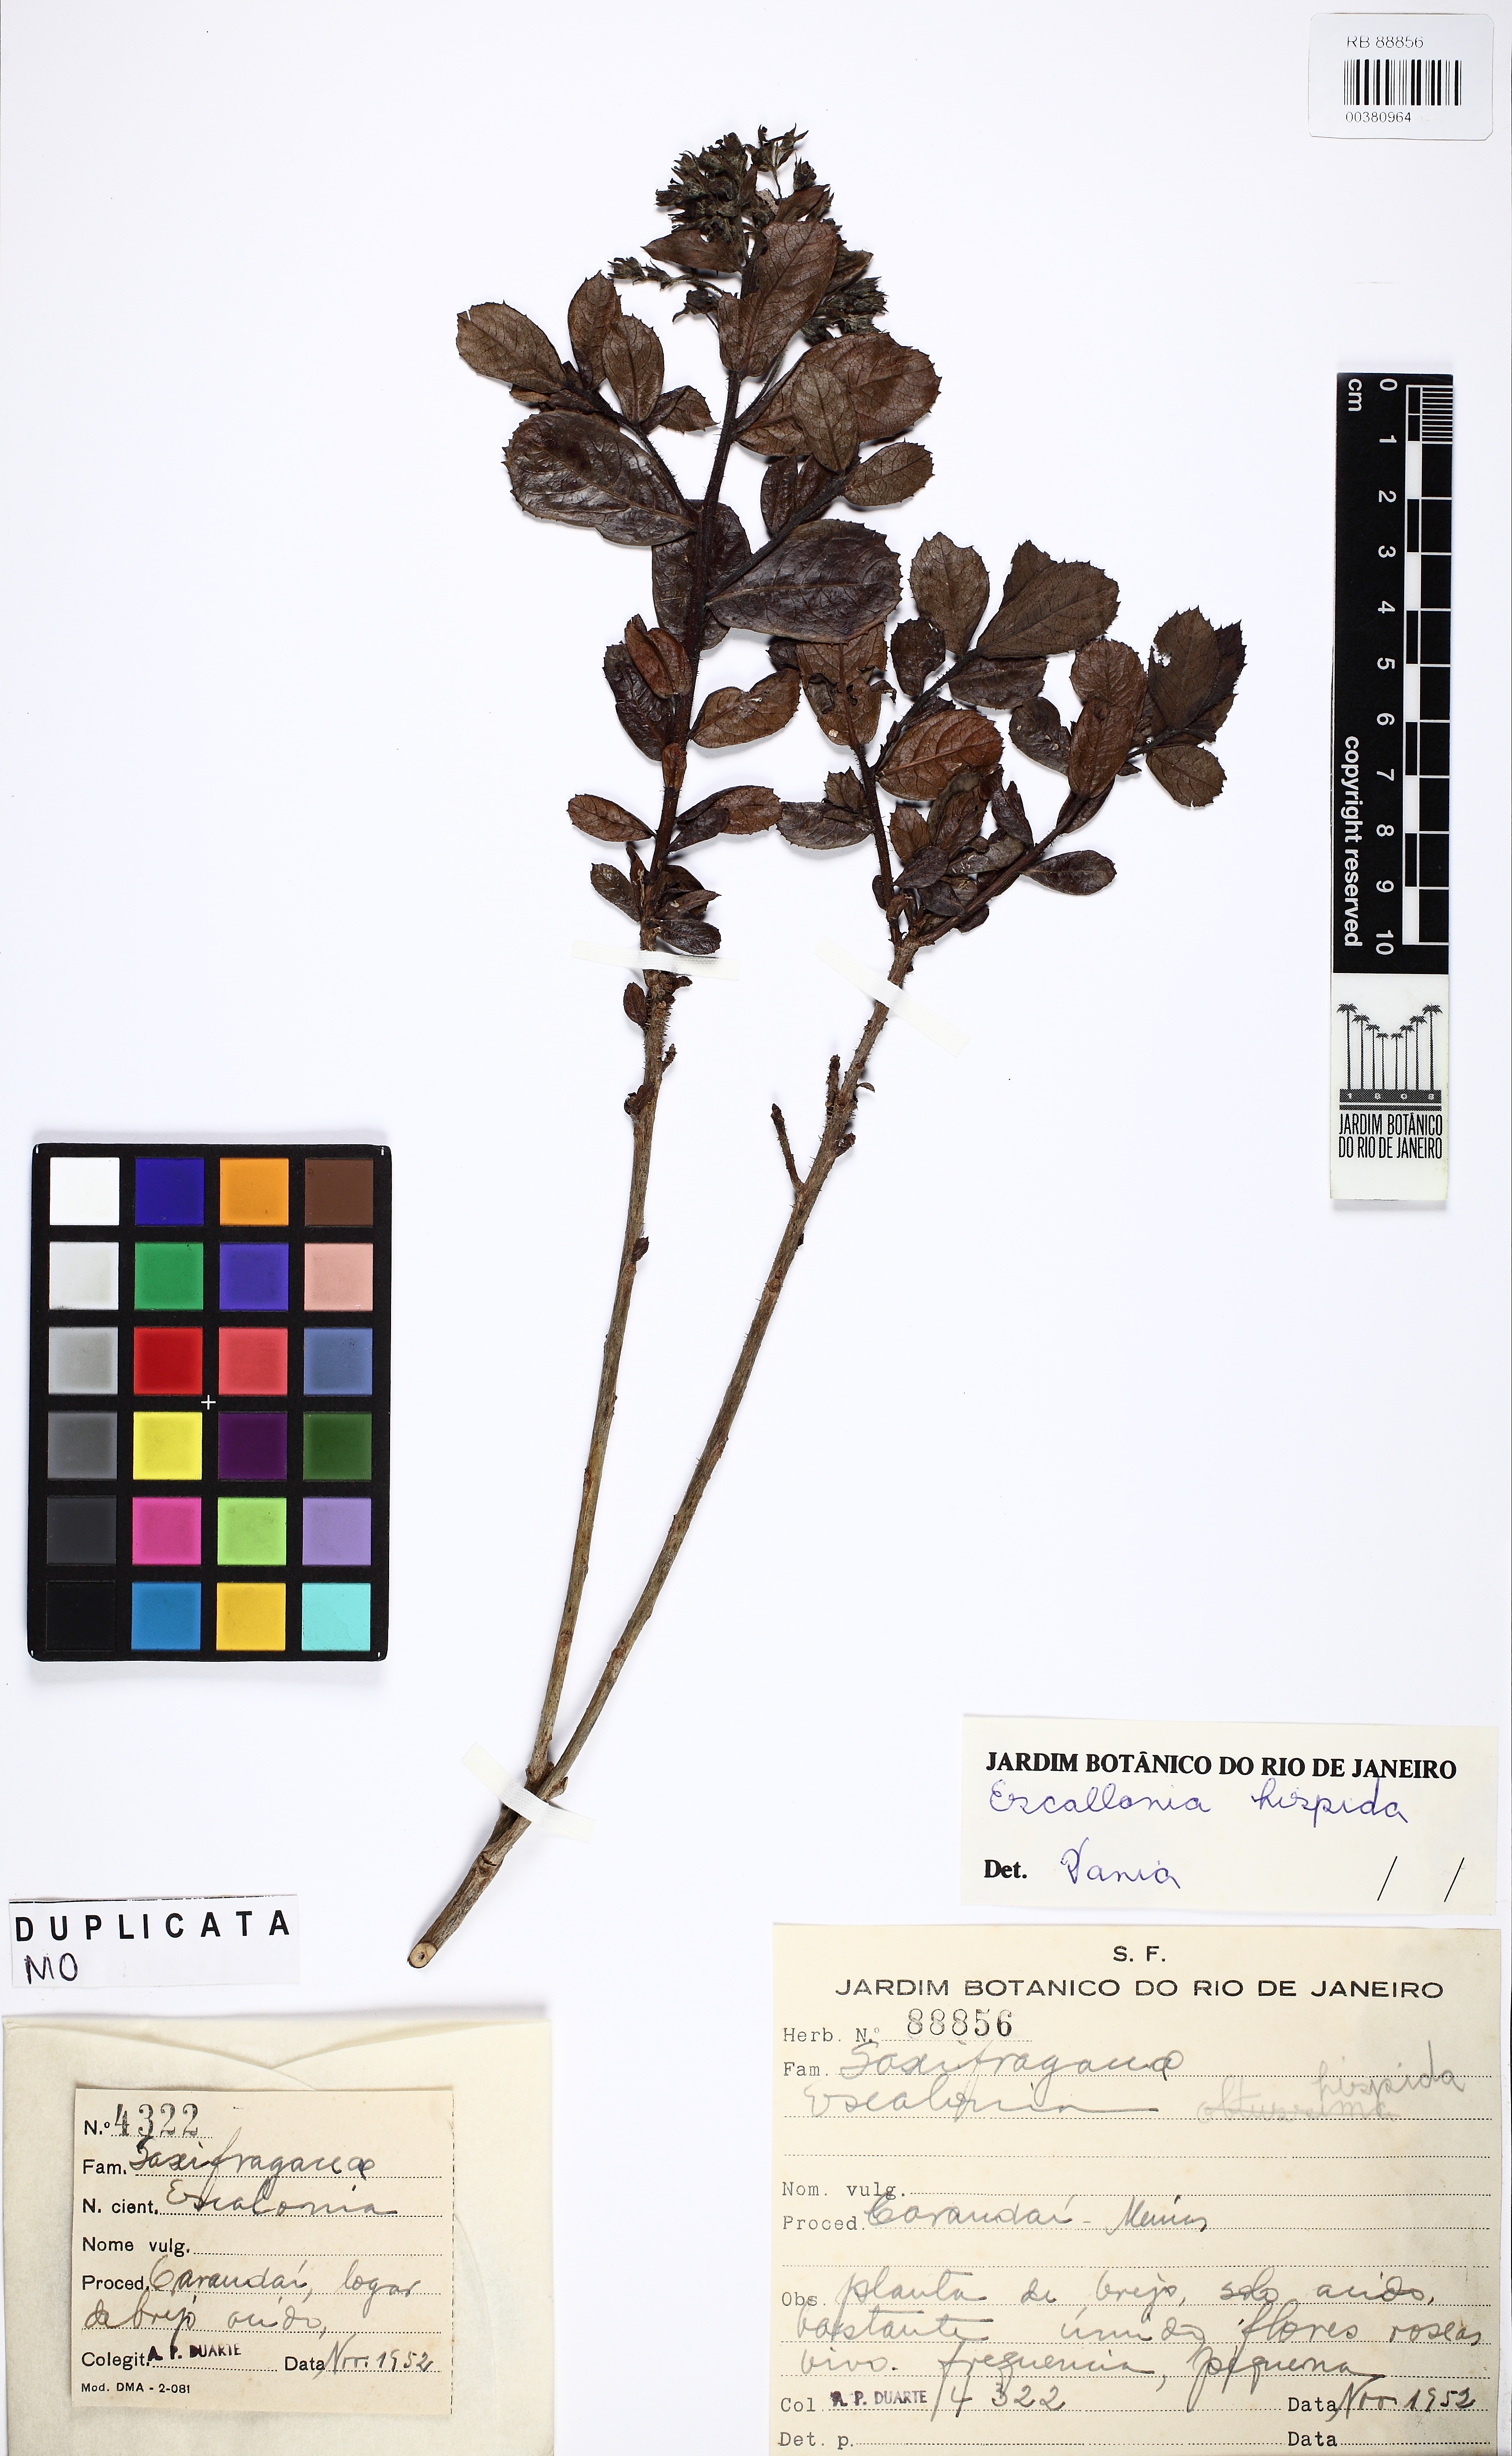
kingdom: Plantae
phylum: Tracheophyta
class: Magnoliopsida
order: Escalloniales
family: Escalloniaceae
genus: Escallonia
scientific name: Escallonia hispida
